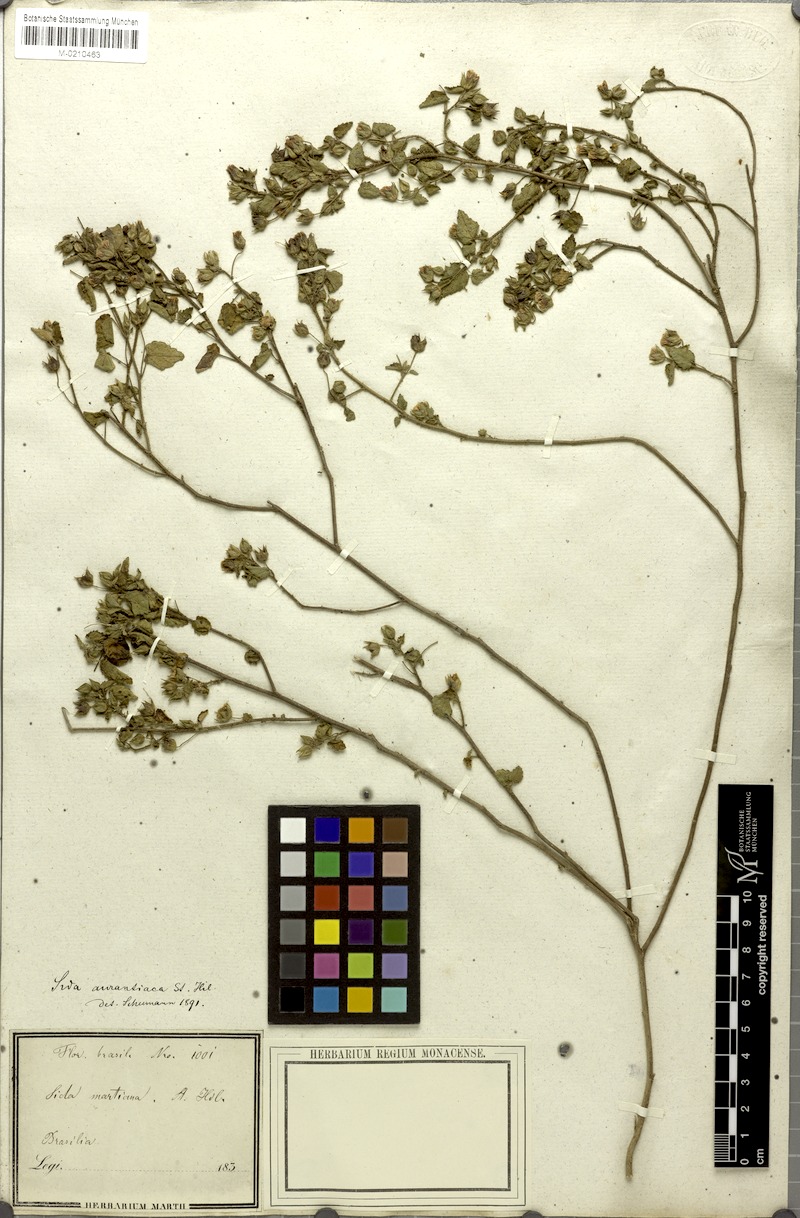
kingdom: Plantae
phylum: Tracheophyta
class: Magnoliopsida
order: Malvales
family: Malvaceae
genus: Sida
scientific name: Sida martiana
